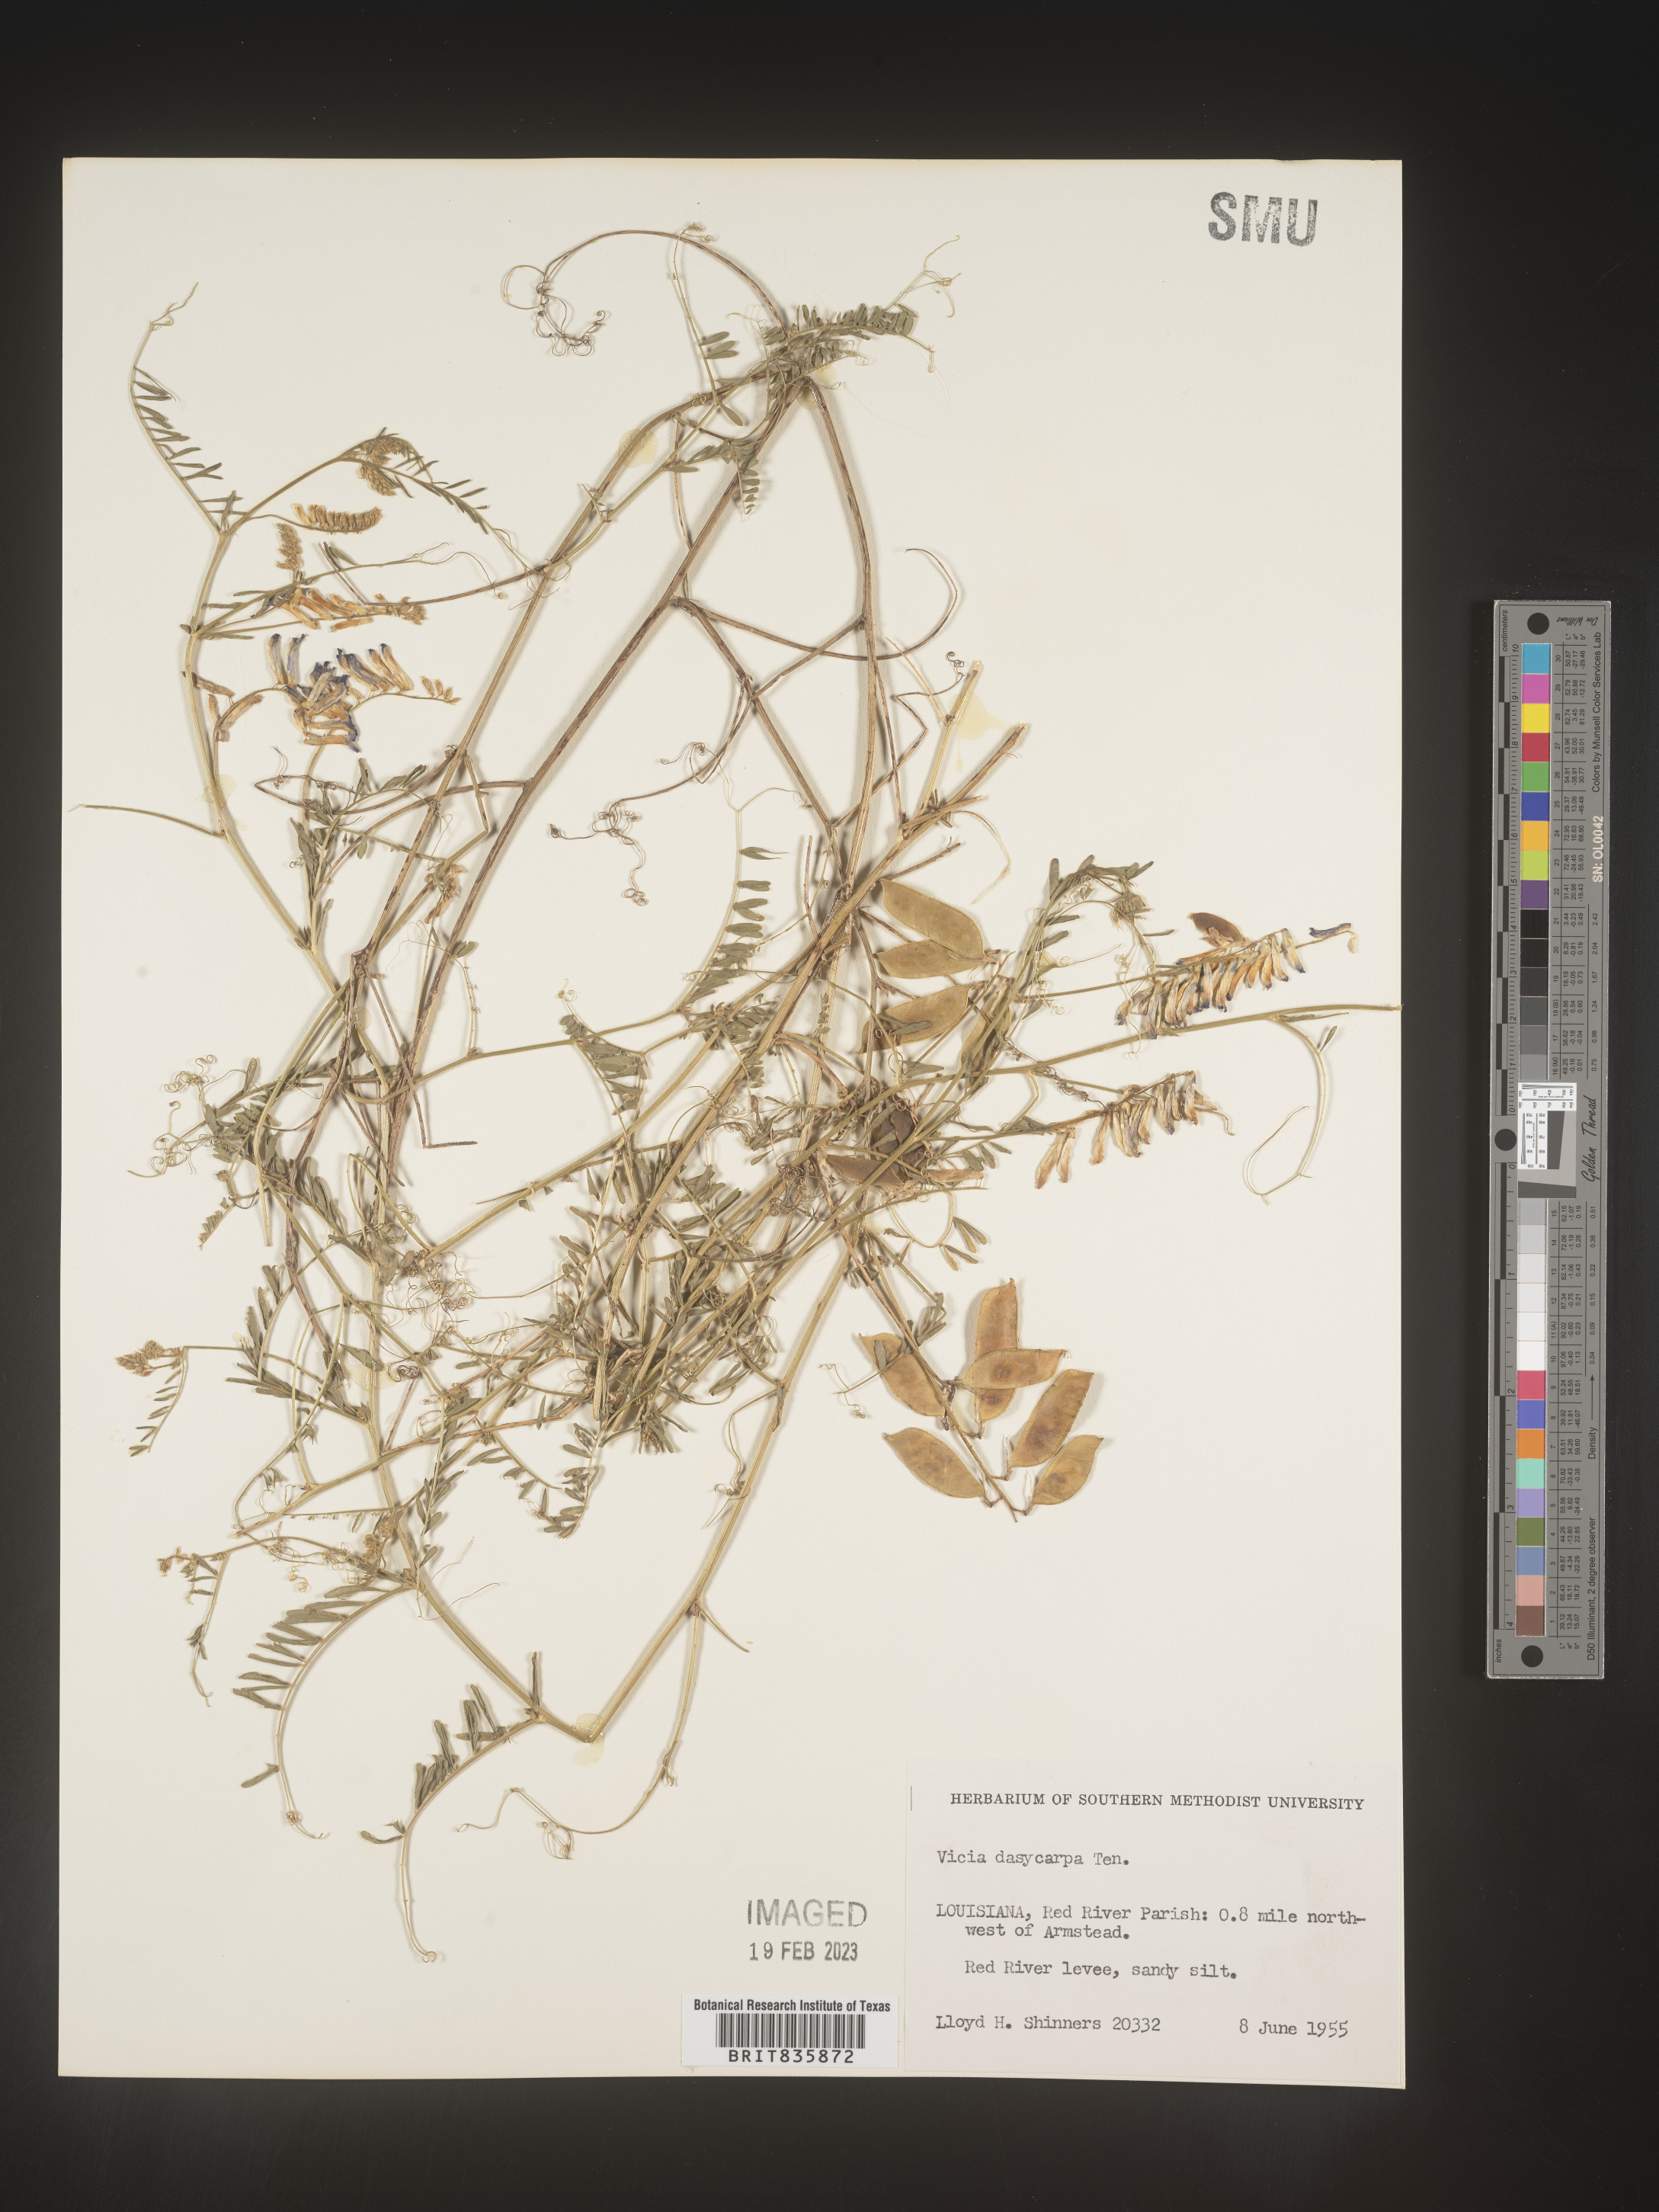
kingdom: Plantae
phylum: Tracheophyta
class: Magnoliopsida
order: Fabales
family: Fabaceae
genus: Vicia
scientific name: Vicia villosa
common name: Fodder vetch
